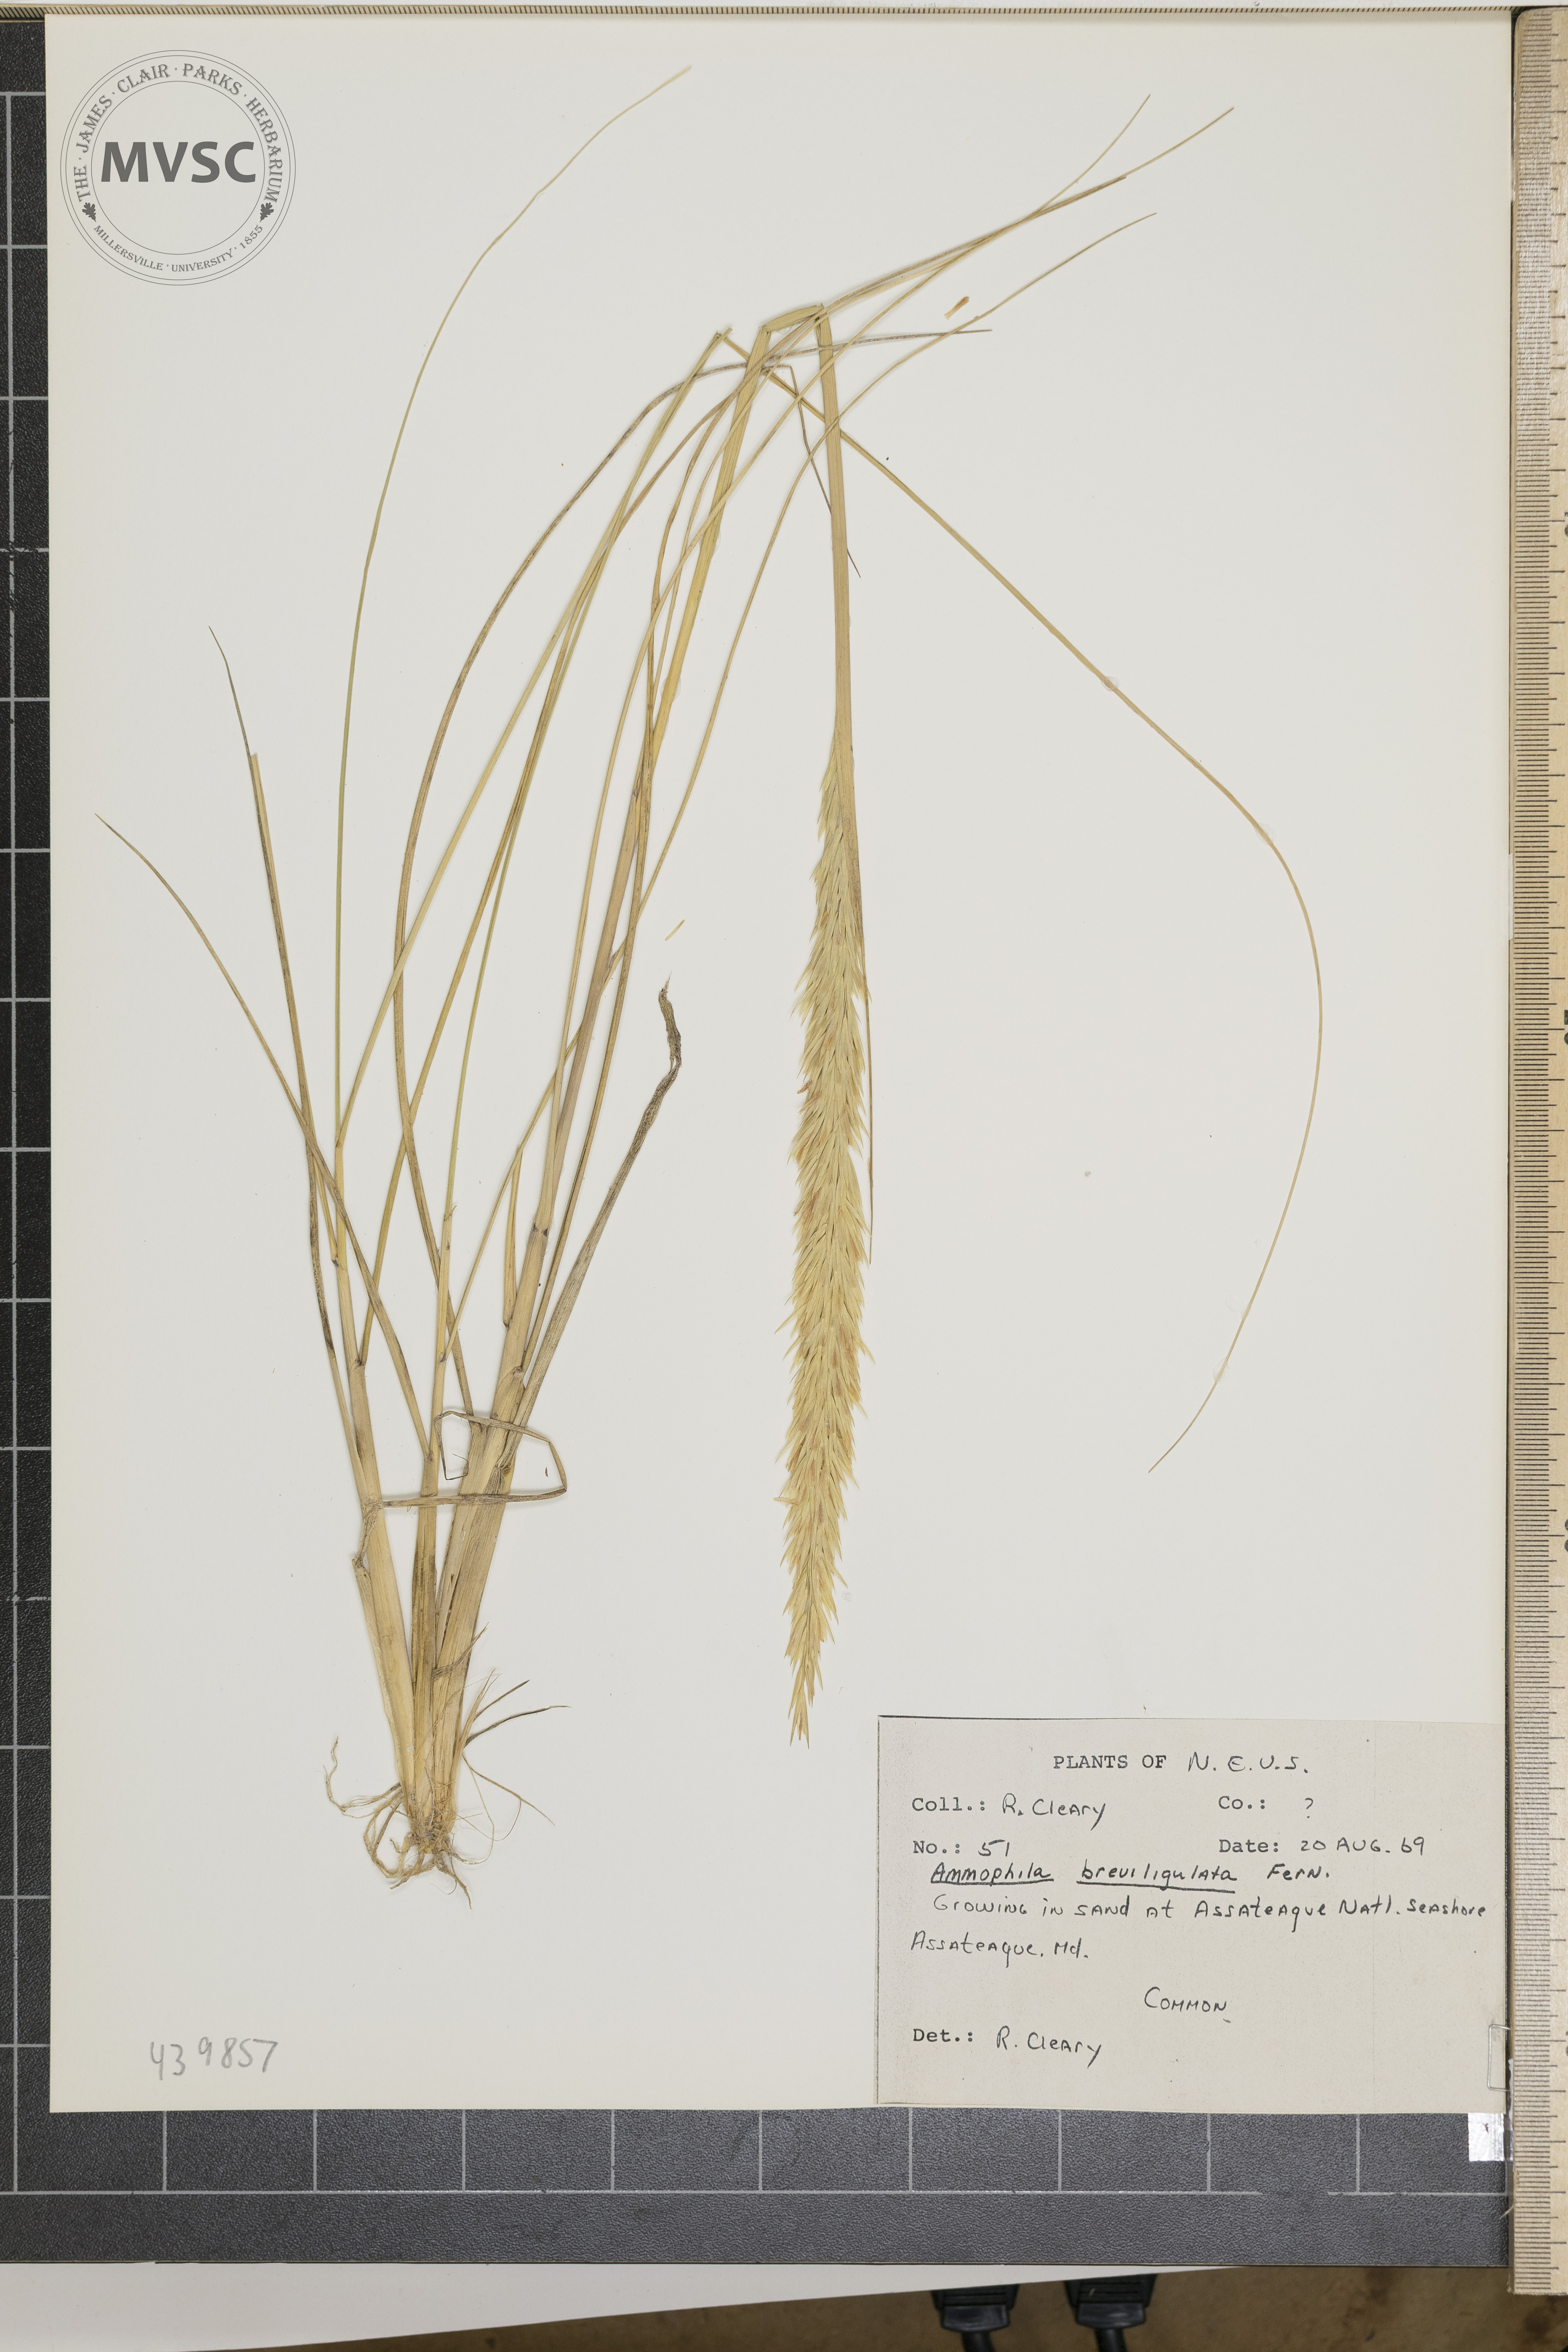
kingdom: Plantae
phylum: Tracheophyta
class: Liliopsida
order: Poales
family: Poaceae
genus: Calamagrostis
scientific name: Calamagrostis breviligulata
